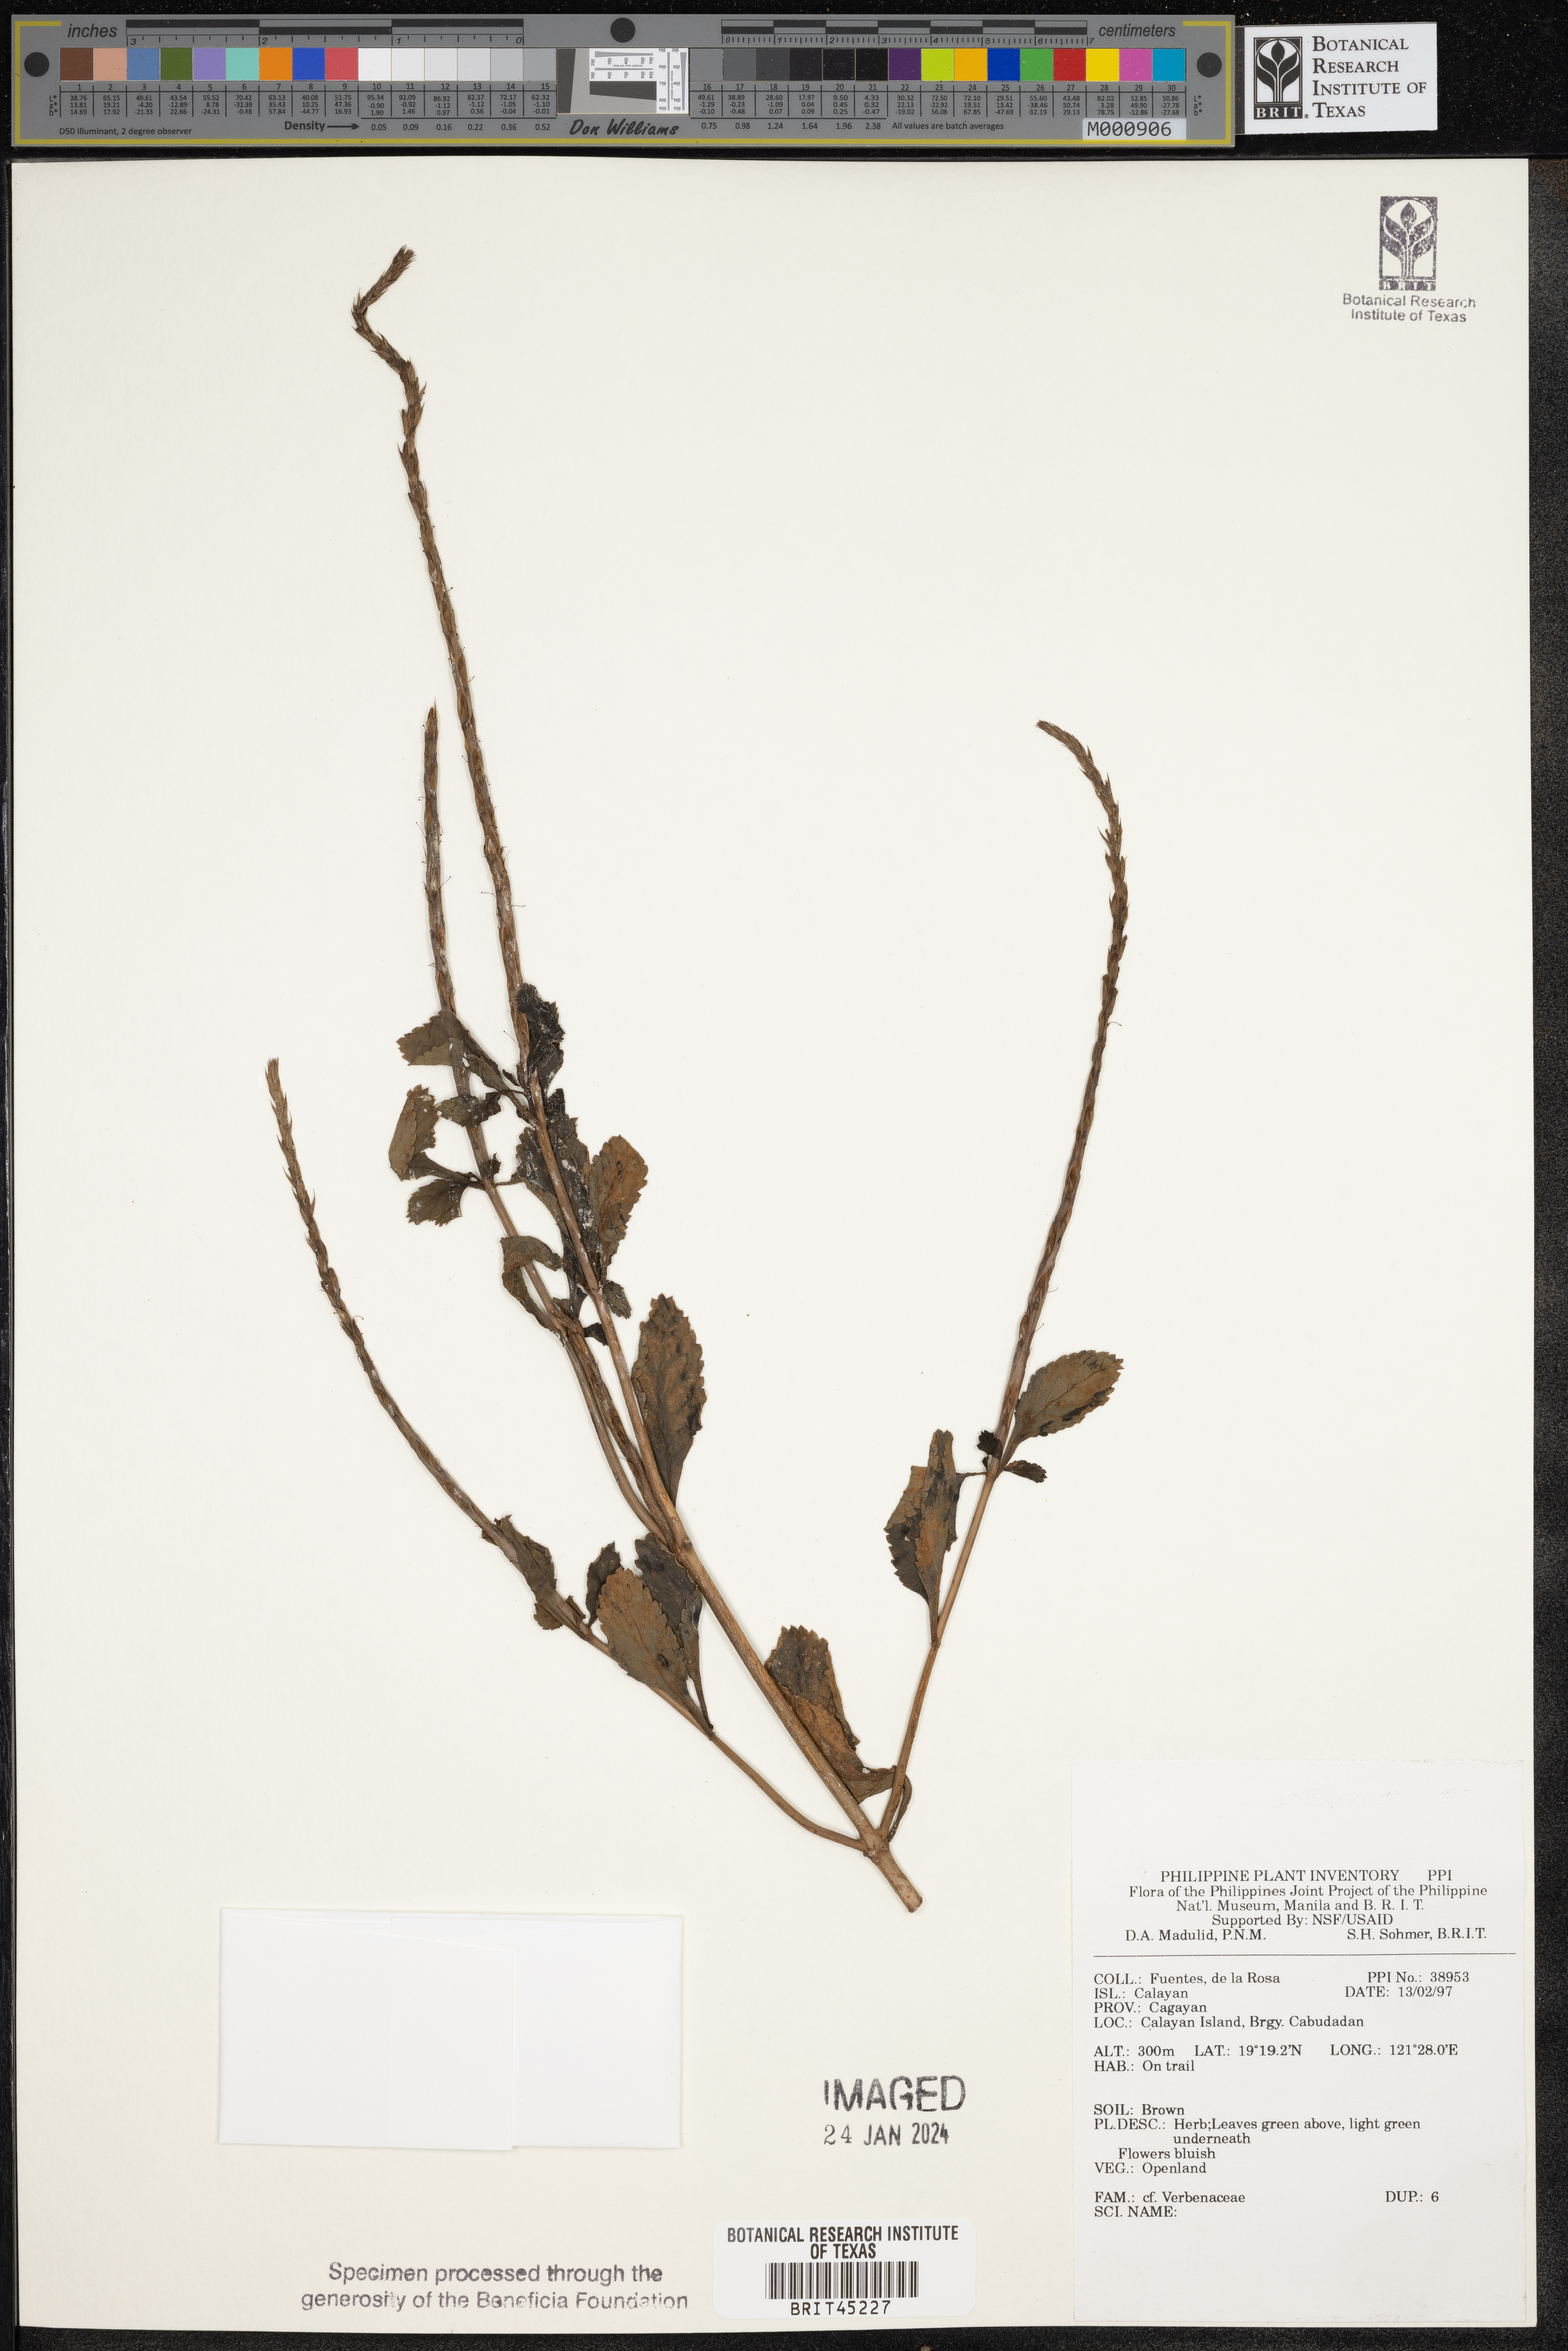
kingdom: Plantae
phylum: Tracheophyta
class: Magnoliopsida
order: Lamiales
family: Verbenaceae
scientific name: Verbenaceae
